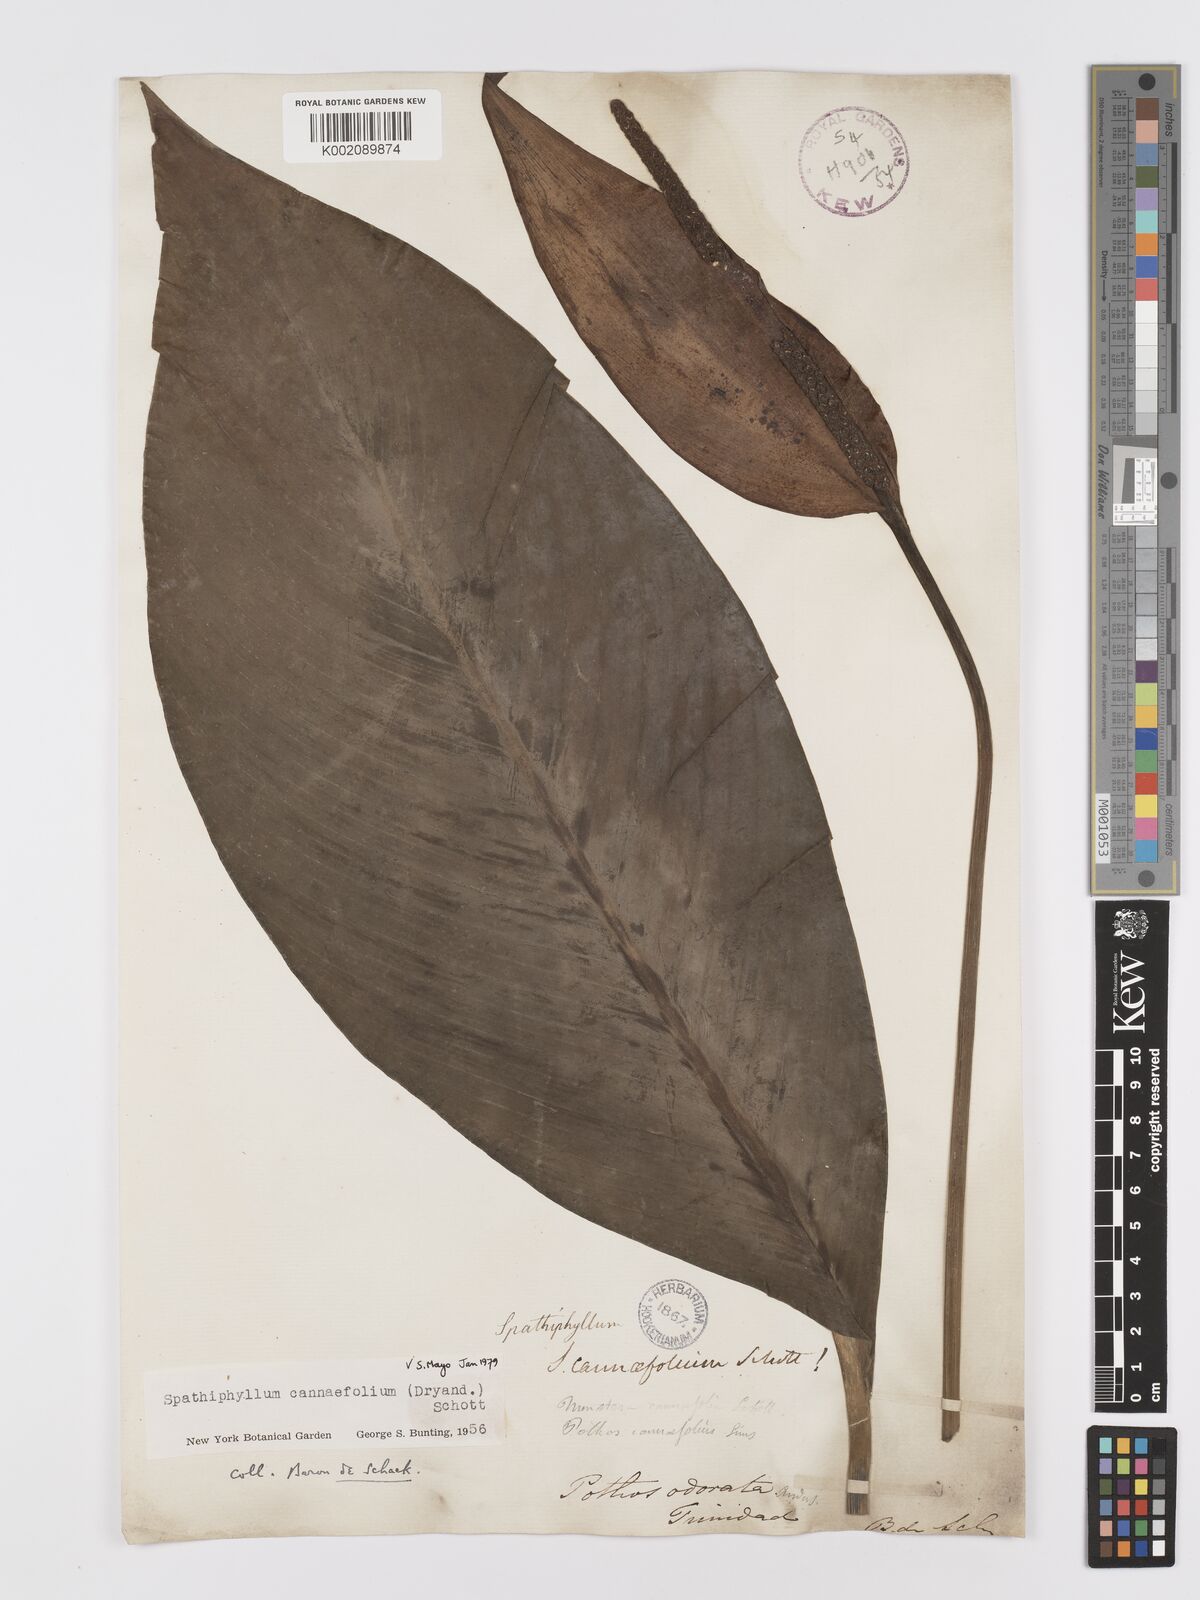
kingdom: Plantae
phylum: Tracheophyta
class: Liliopsida
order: Alismatales
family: Araceae
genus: Spathiphyllum
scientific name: Spathiphyllum cannifolium
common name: Spatheflower
